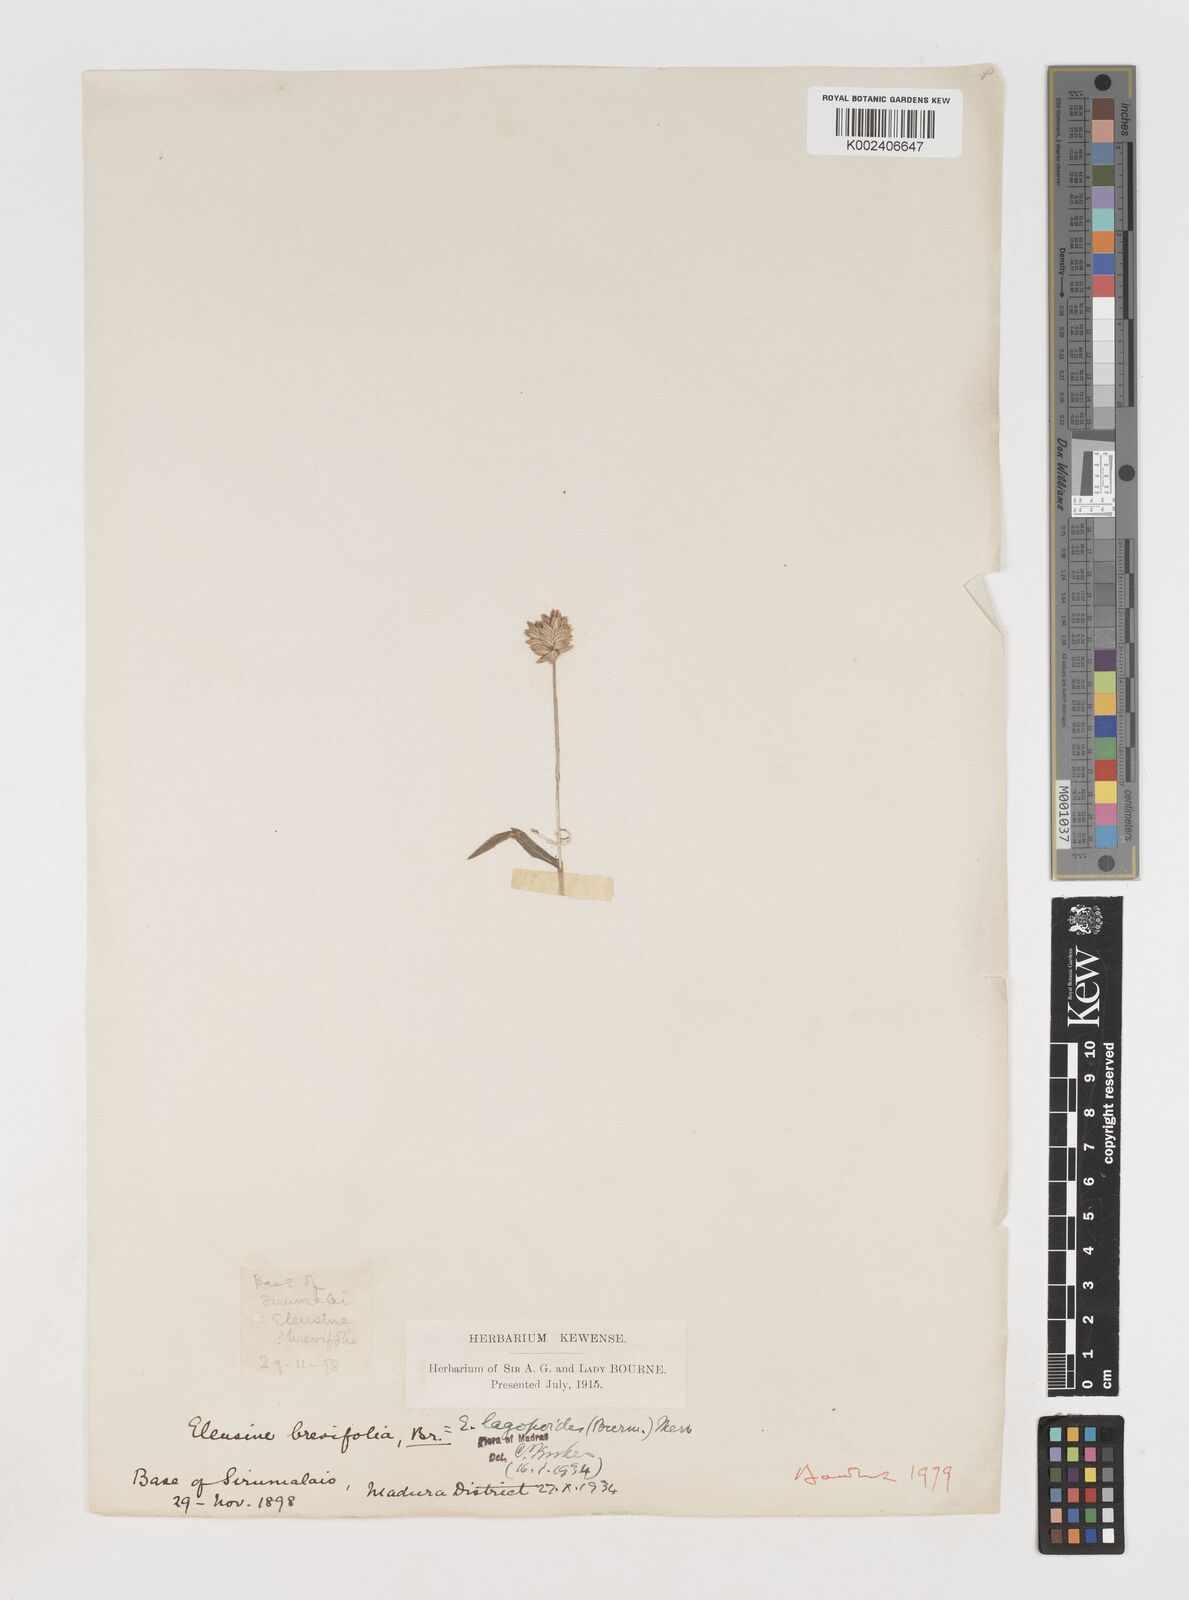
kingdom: Plantae
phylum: Tracheophyta
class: Liliopsida
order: Poales
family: Poaceae
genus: Coelachyrum
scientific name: Coelachyrum lagopoides
